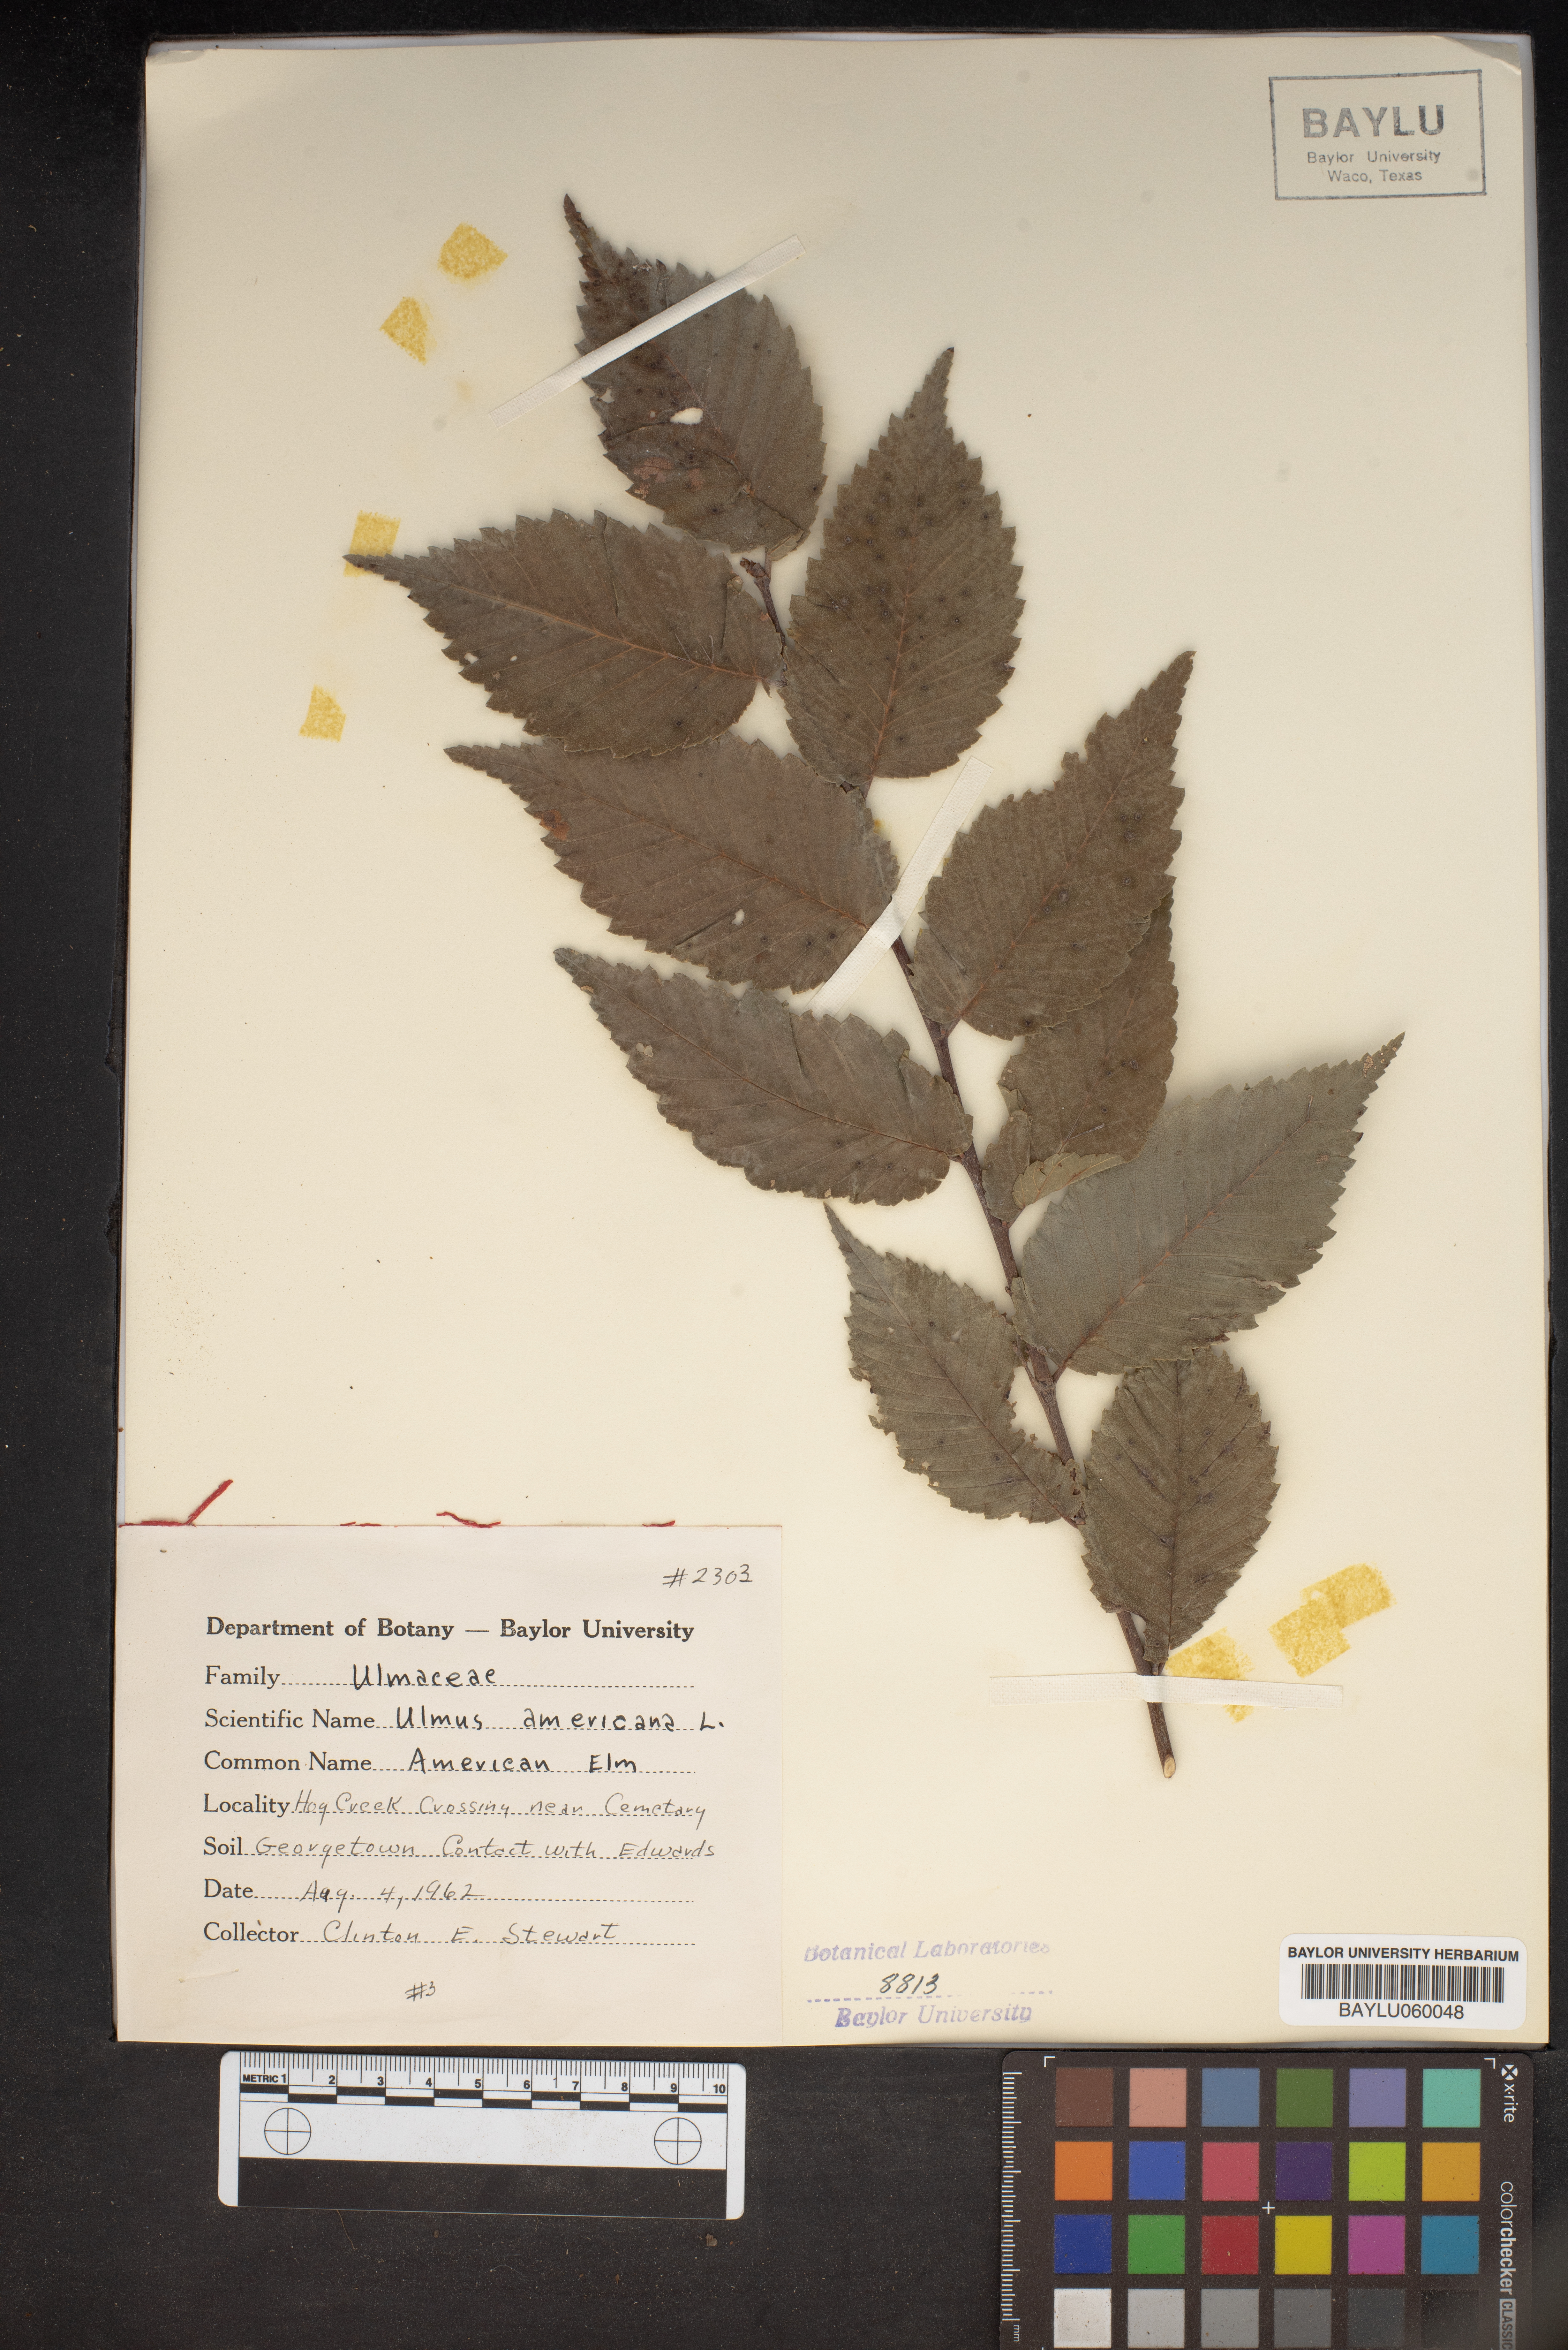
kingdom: Plantae
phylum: Tracheophyta
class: Magnoliopsida
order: Rosales
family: Ulmaceae
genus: Ulmus
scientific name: Ulmus americana
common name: American elm
